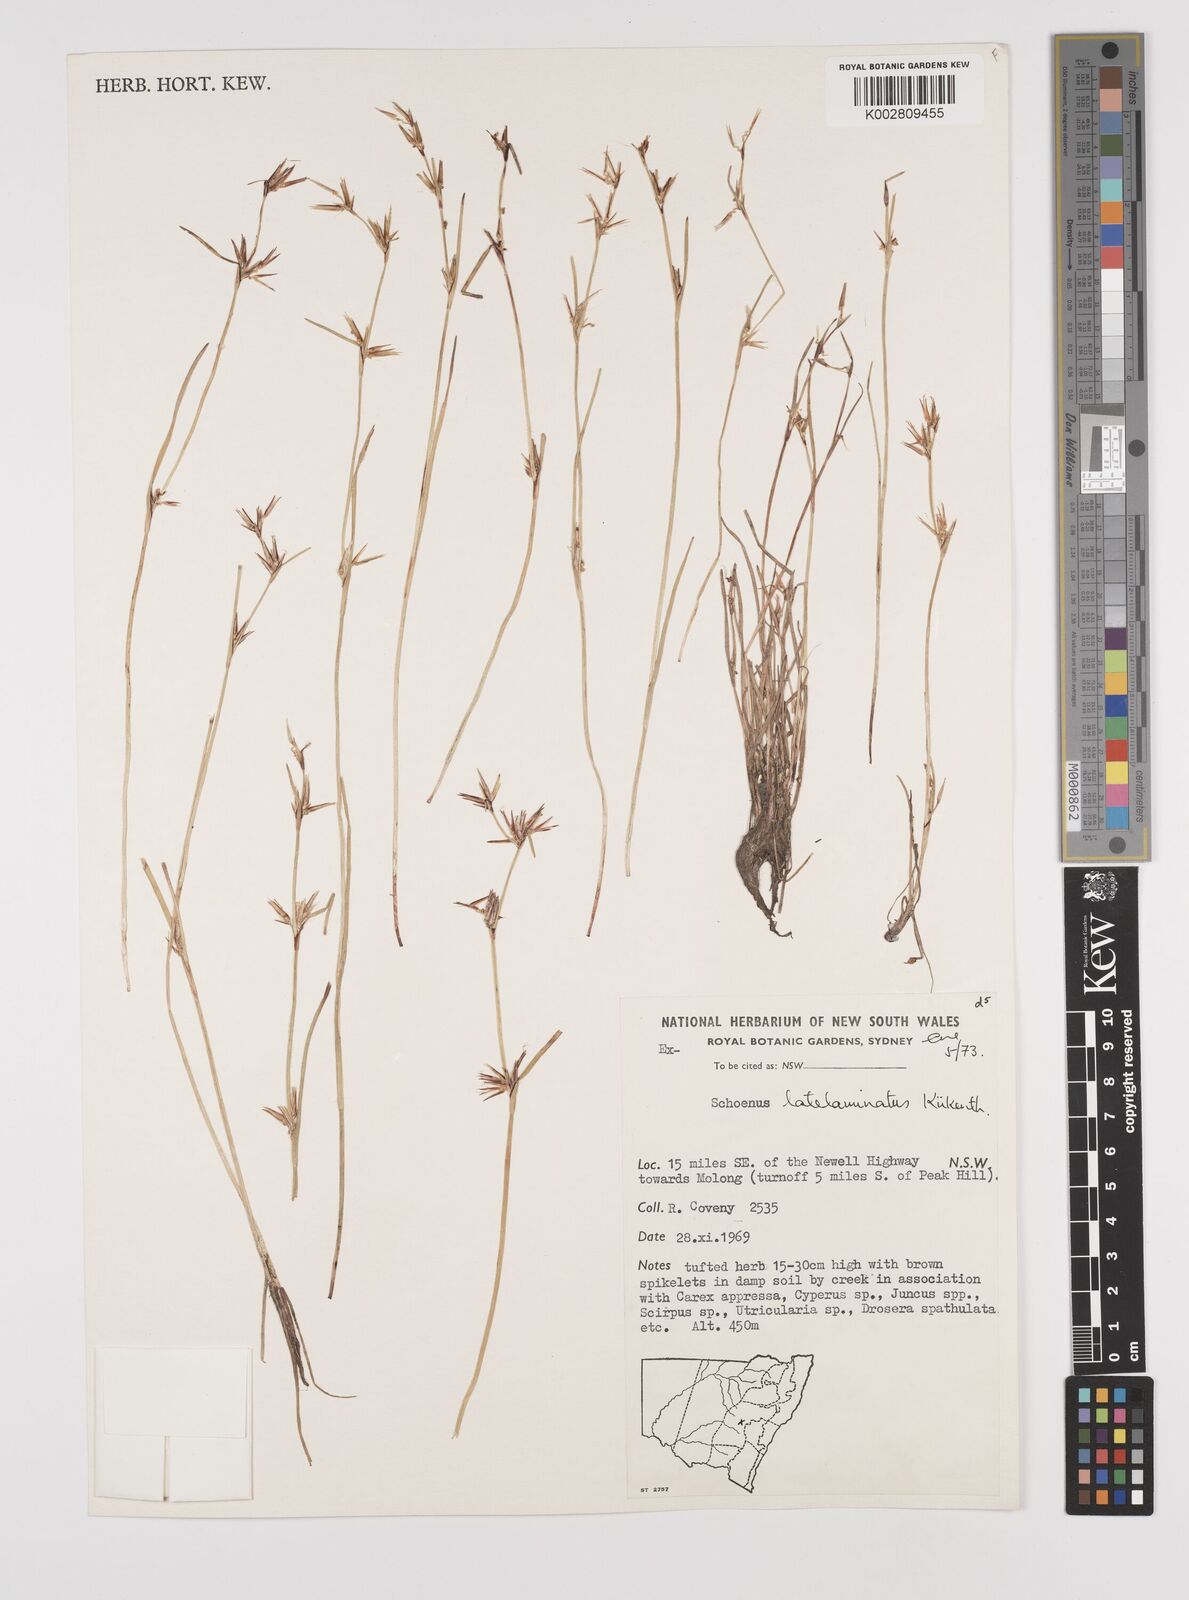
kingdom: Plantae
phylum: Tracheophyta
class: Liliopsida
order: Poales
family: Cyperaceae
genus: Schoenus
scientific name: Schoenus latelaminatus
